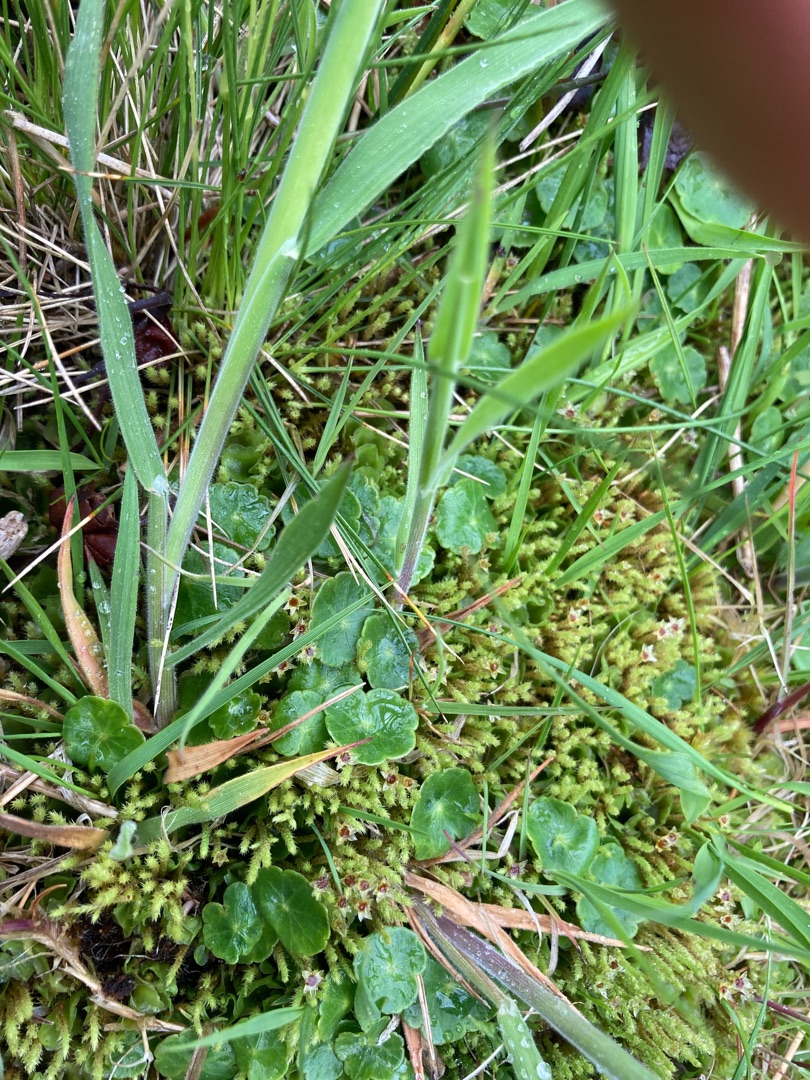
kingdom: Plantae
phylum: Tracheophyta
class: Magnoliopsida
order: Apiales
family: Araliaceae
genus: Hydrocotyle
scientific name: Hydrocotyle vulgaris
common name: Vandnavle
